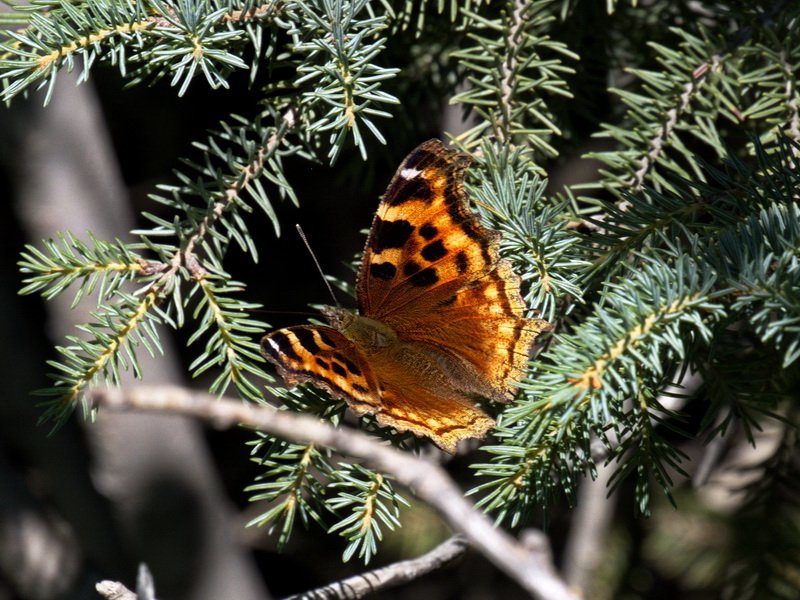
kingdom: Animalia
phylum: Arthropoda
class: Insecta
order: Lepidoptera
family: Nymphalidae
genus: Polygonia
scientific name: Polygonia vaualbum
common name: Compton Tortoiseshell
